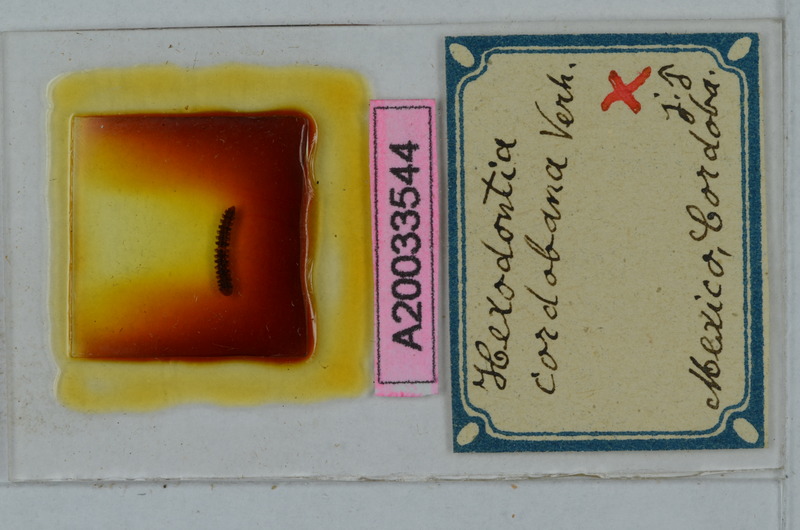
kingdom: Animalia
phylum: Arthropoda
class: Diplopoda
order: Polydesmida
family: Cryptodesmidae
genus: Peridontodesmus
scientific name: Peridontodesmus cordobanus
